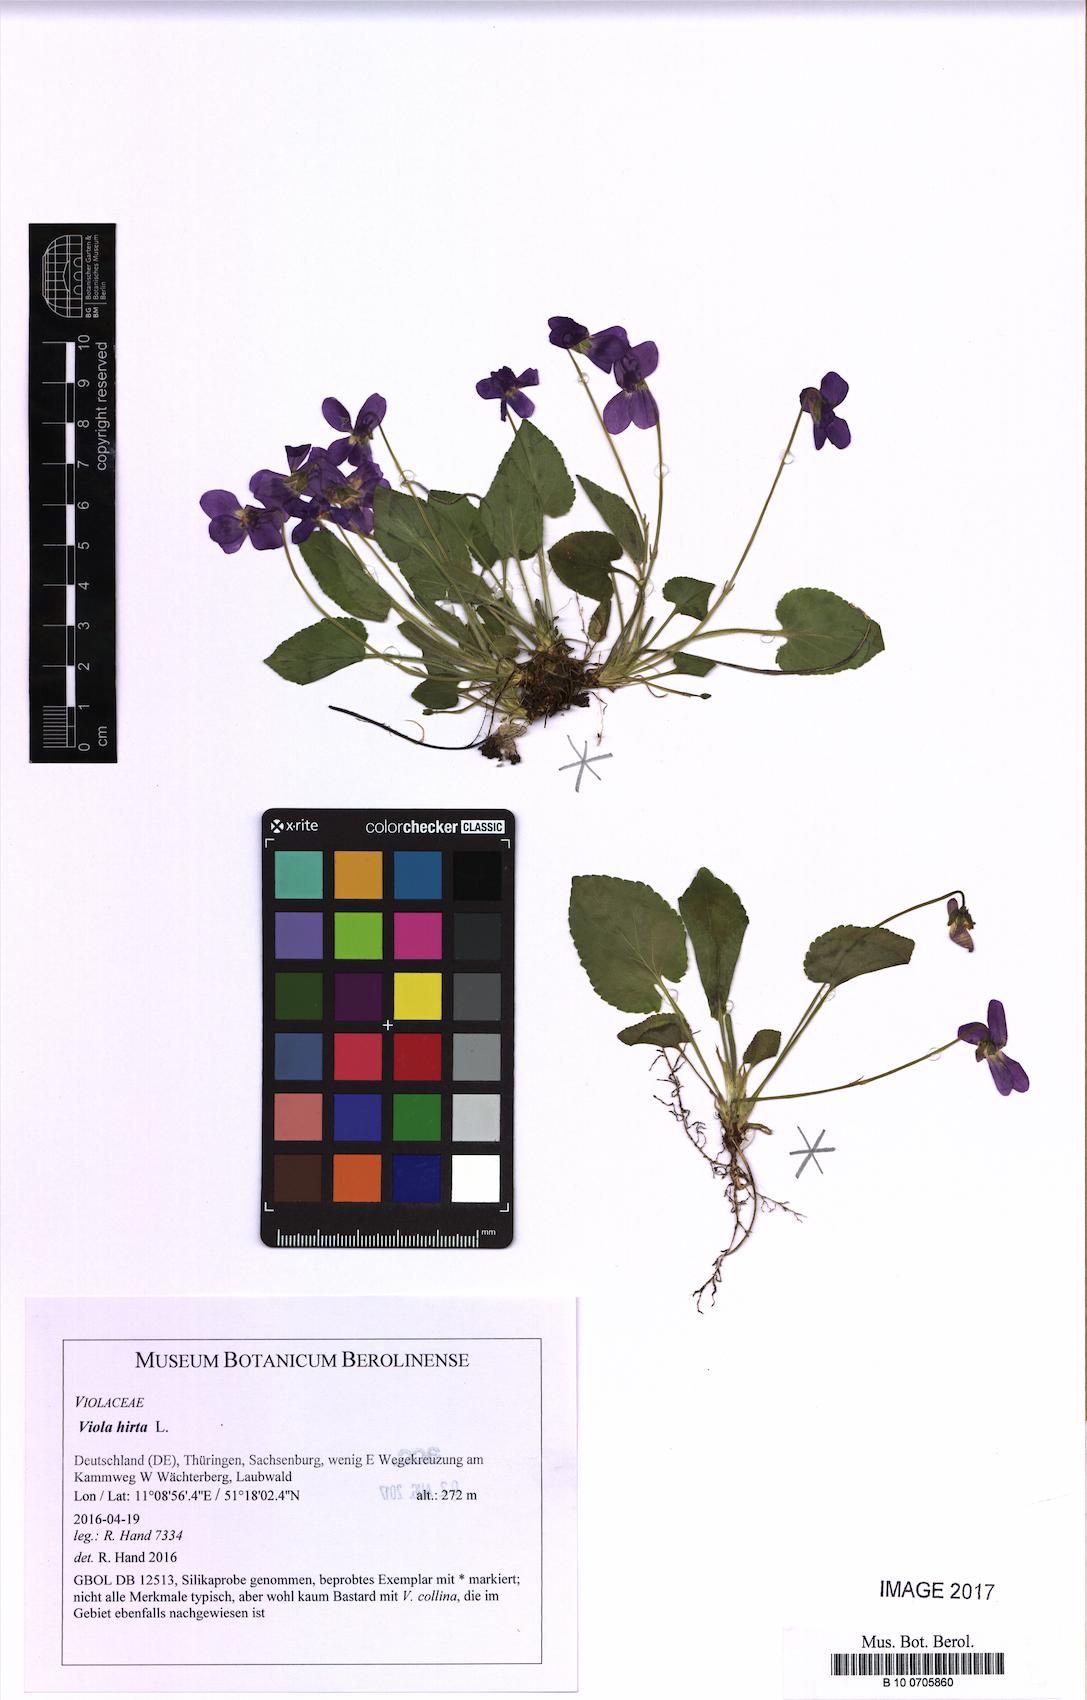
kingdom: Plantae
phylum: Tracheophyta
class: Magnoliopsida
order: Malpighiales
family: Violaceae
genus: Viola
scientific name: Viola hirta
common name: Hairy violet
